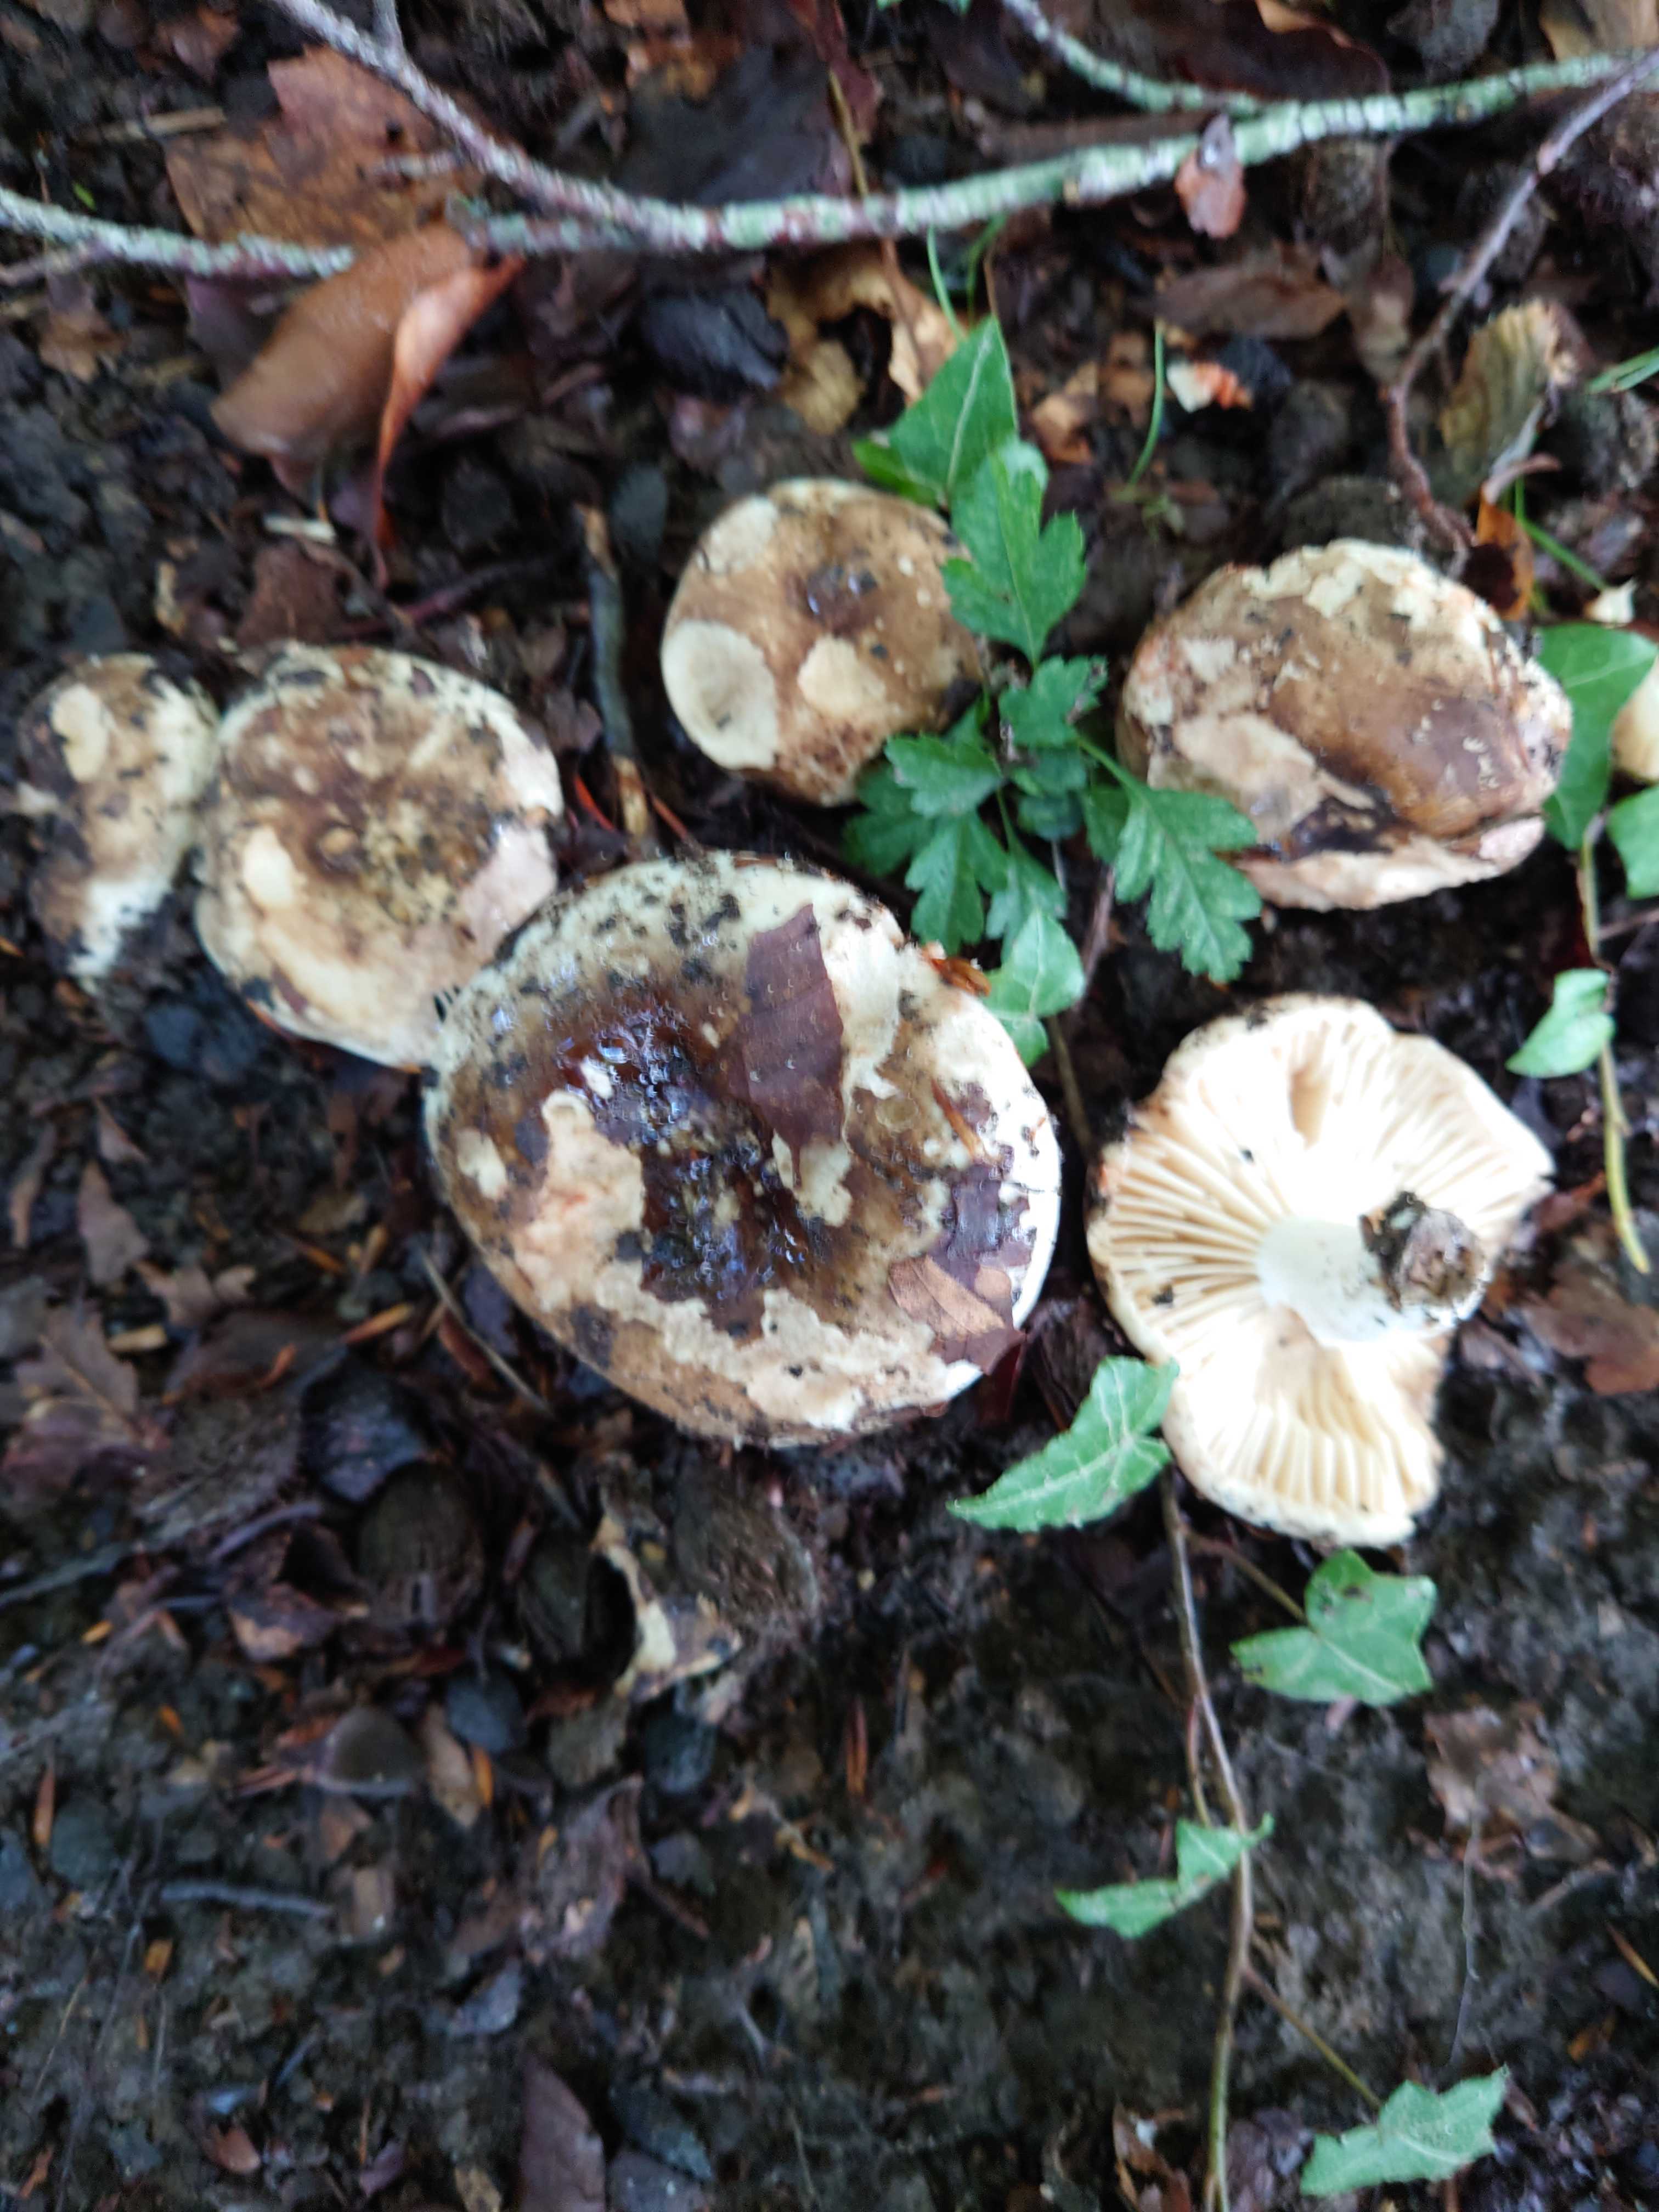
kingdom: Fungi
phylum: Basidiomycota
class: Agaricomycetes
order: Russulales
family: Russulaceae
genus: Russula
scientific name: Russula adusta
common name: sværtende skørhat
